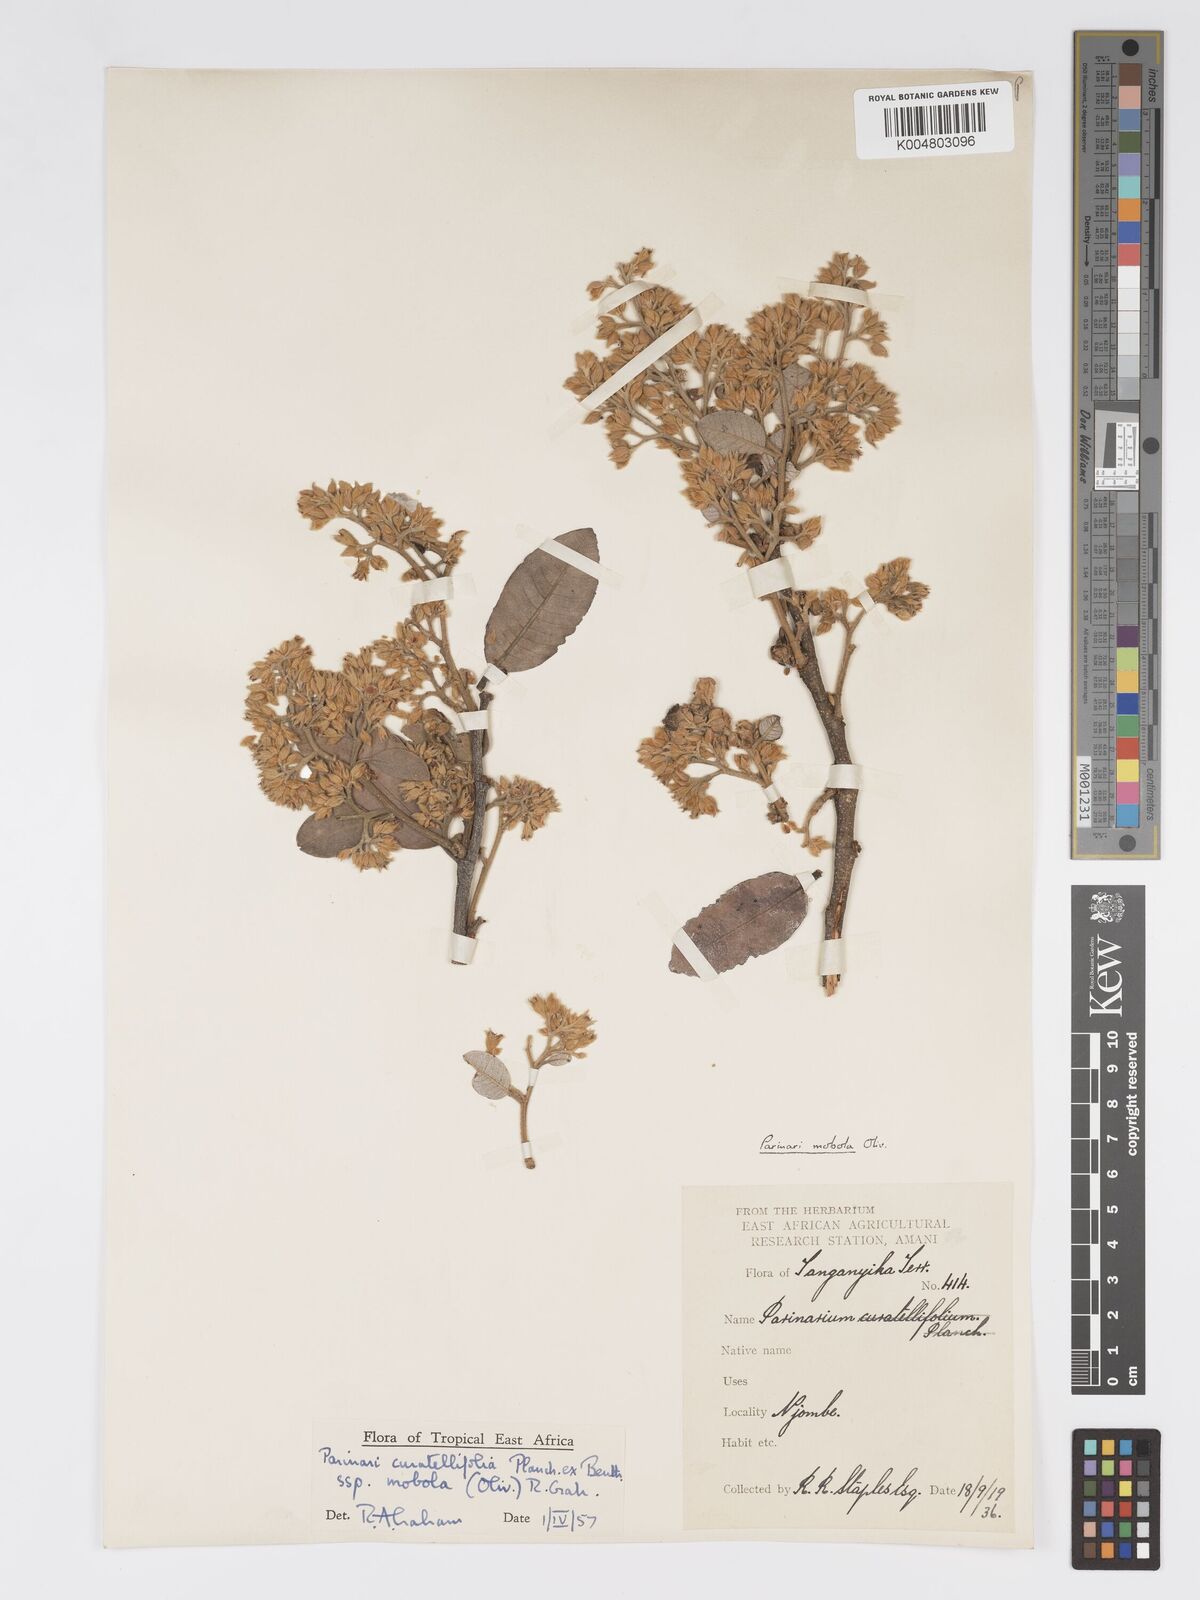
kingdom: Plantae
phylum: Tracheophyta
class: Magnoliopsida
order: Malpighiales
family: Chrysobalanaceae
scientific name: Chrysobalanaceae
